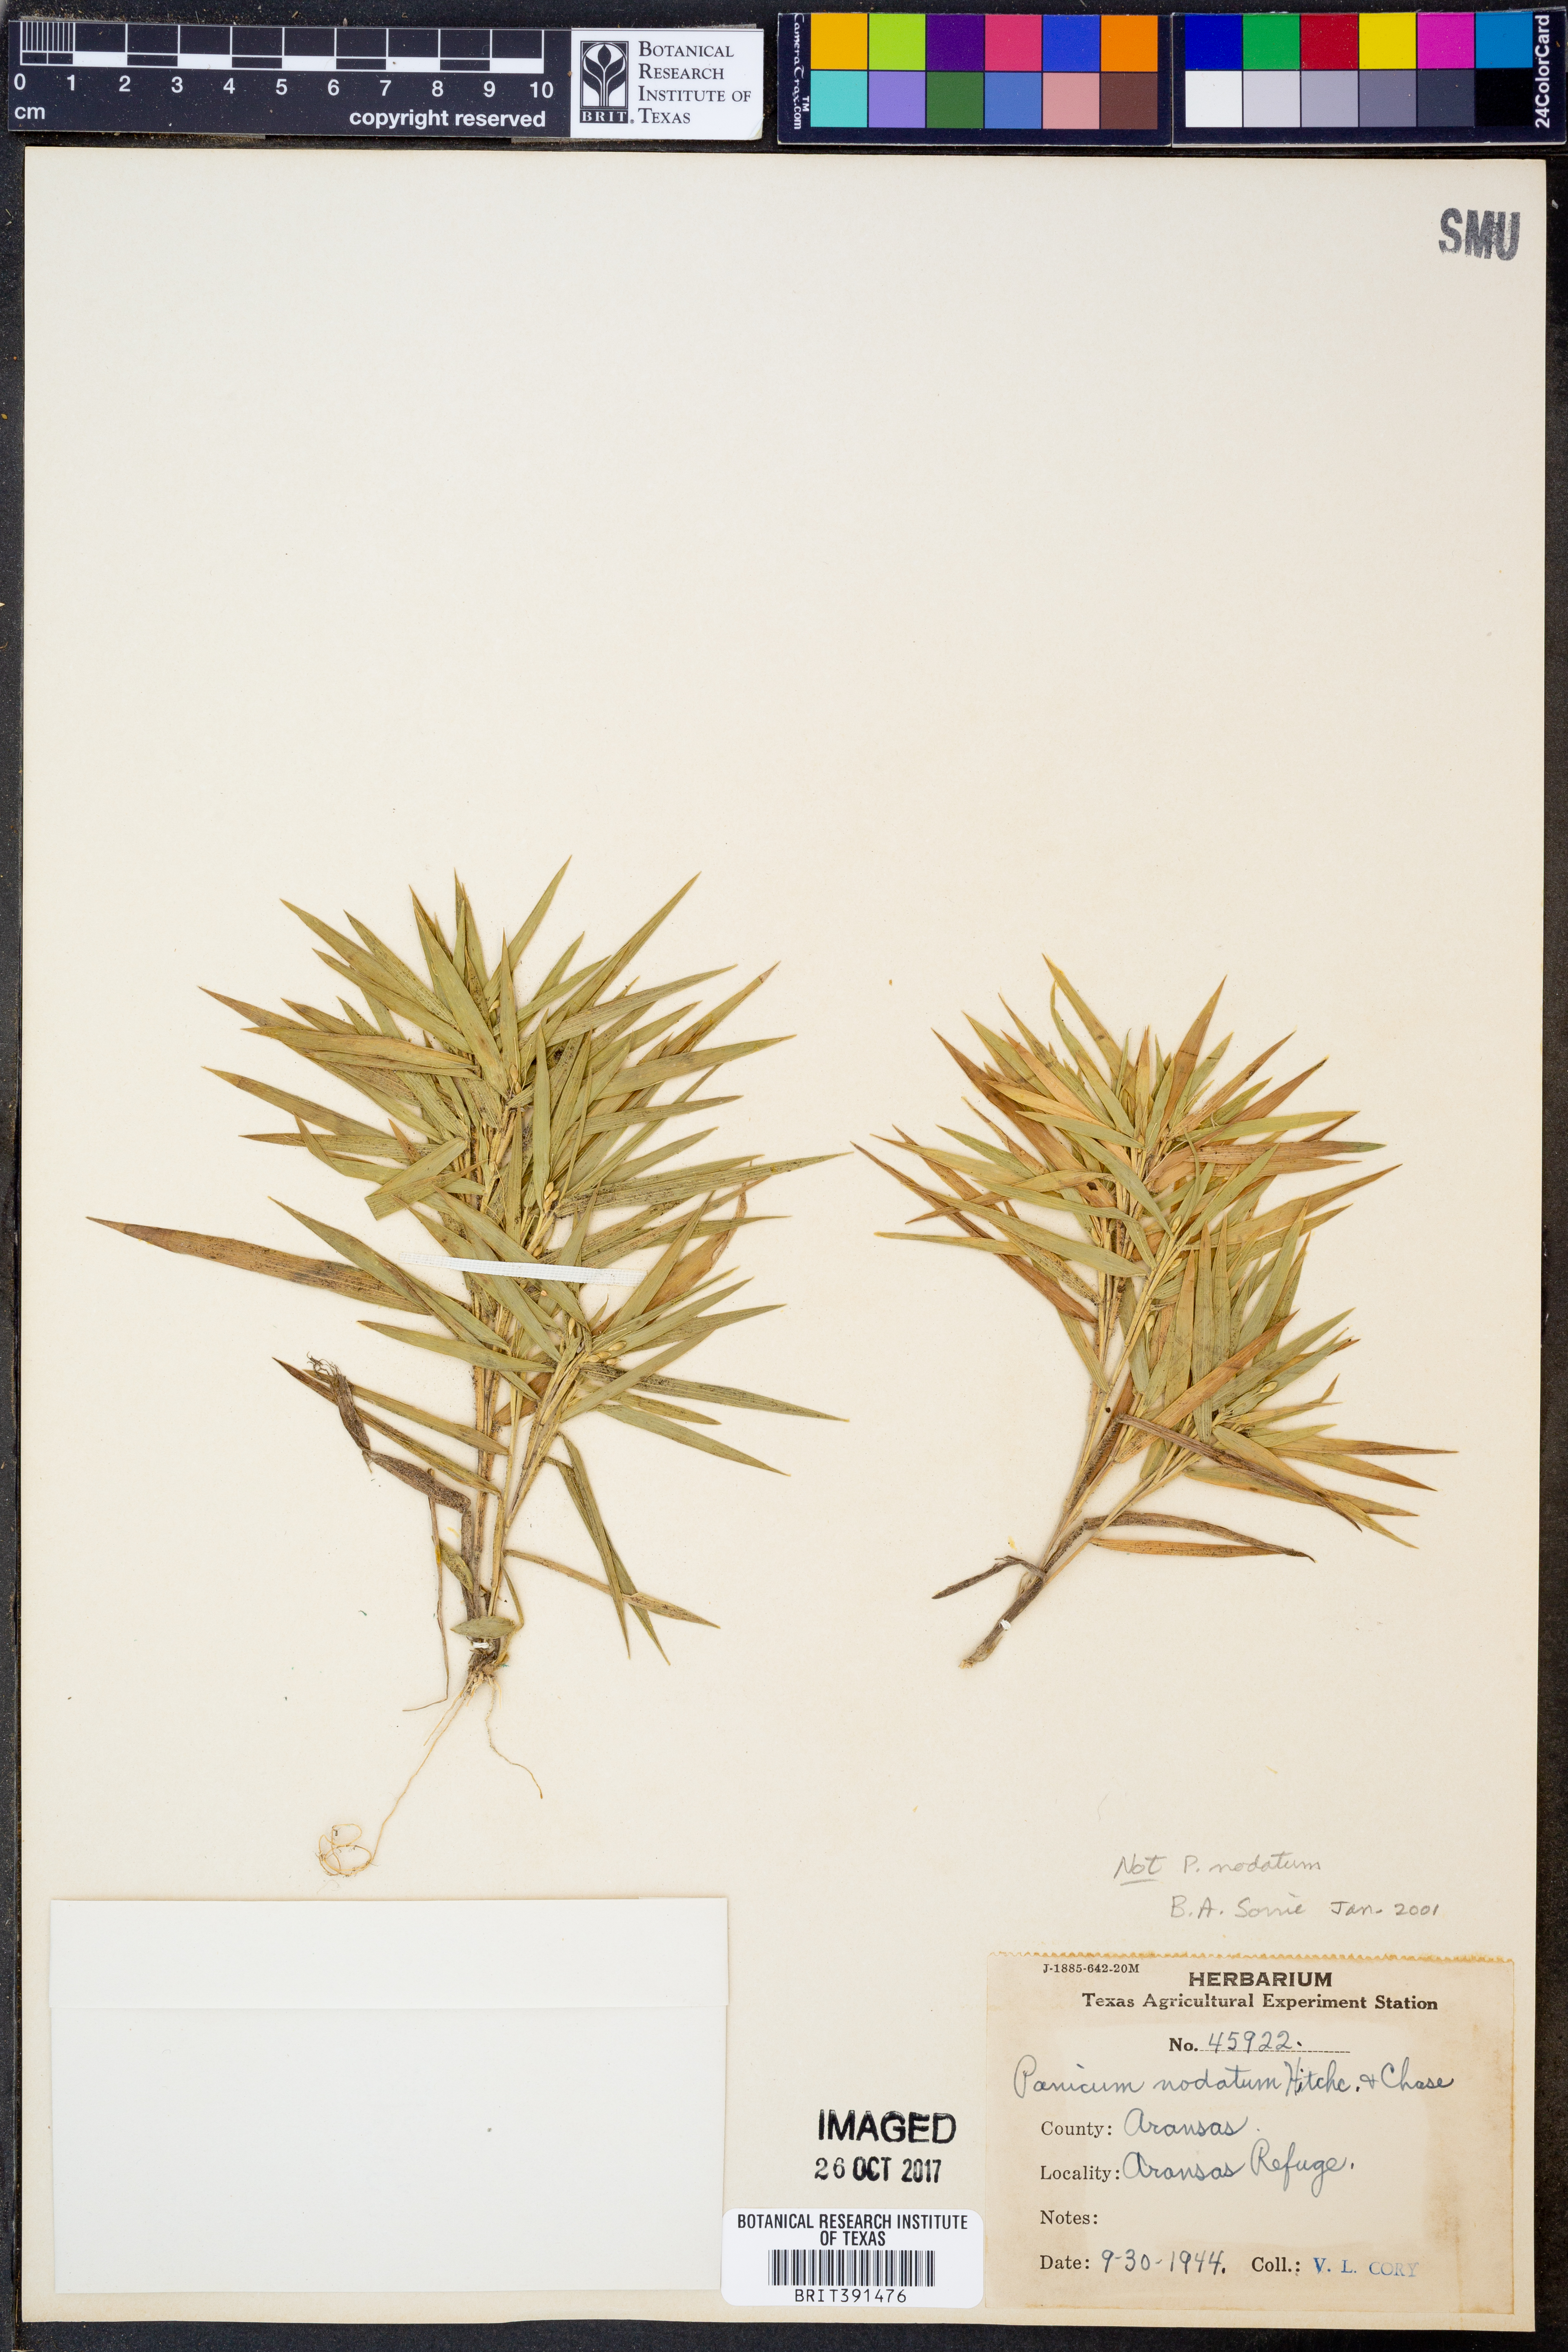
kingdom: Plantae
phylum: Tracheophyta
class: Liliopsida
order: Poales
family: Poaceae
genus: Dichanthelium
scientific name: Dichanthelium nodatum
